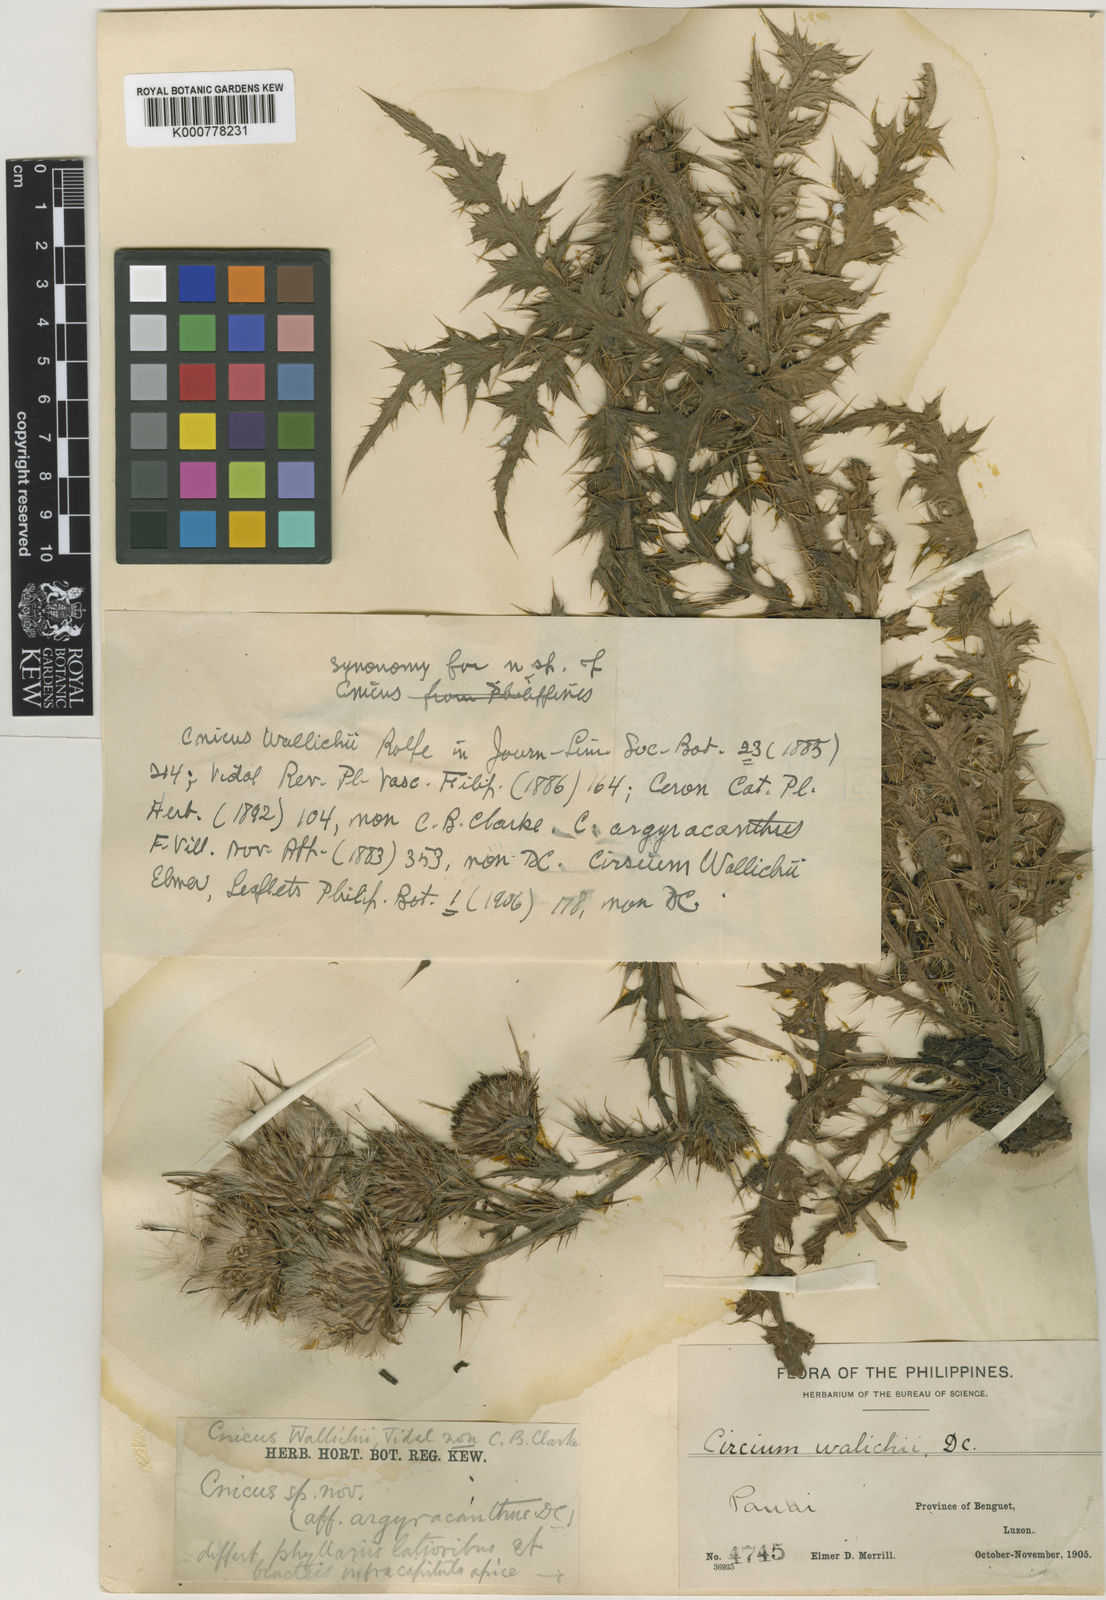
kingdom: Plantae
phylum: Tracheophyta
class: Magnoliopsida
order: Asterales
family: Asteraceae
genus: Cirsium
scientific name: Cirsium luzoniense
